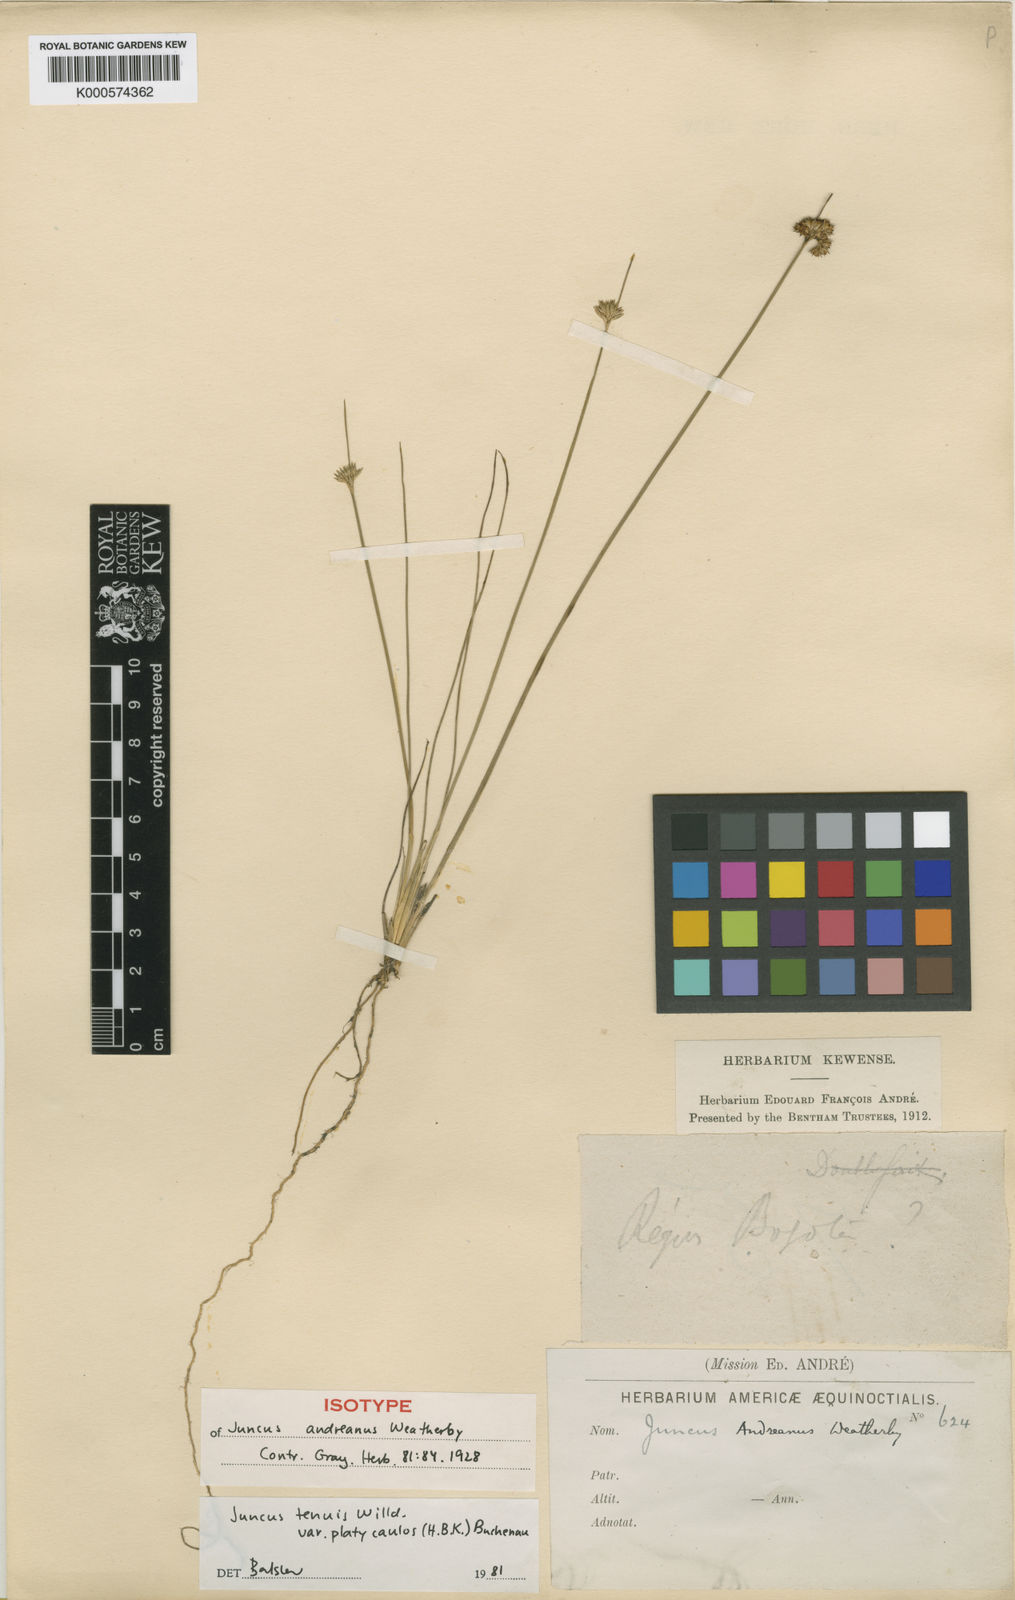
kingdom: Plantae
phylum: Tracheophyta
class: Liliopsida
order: Poales
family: Juncaceae
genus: Juncus
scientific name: Juncus dudleyi
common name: Dudley's rush
